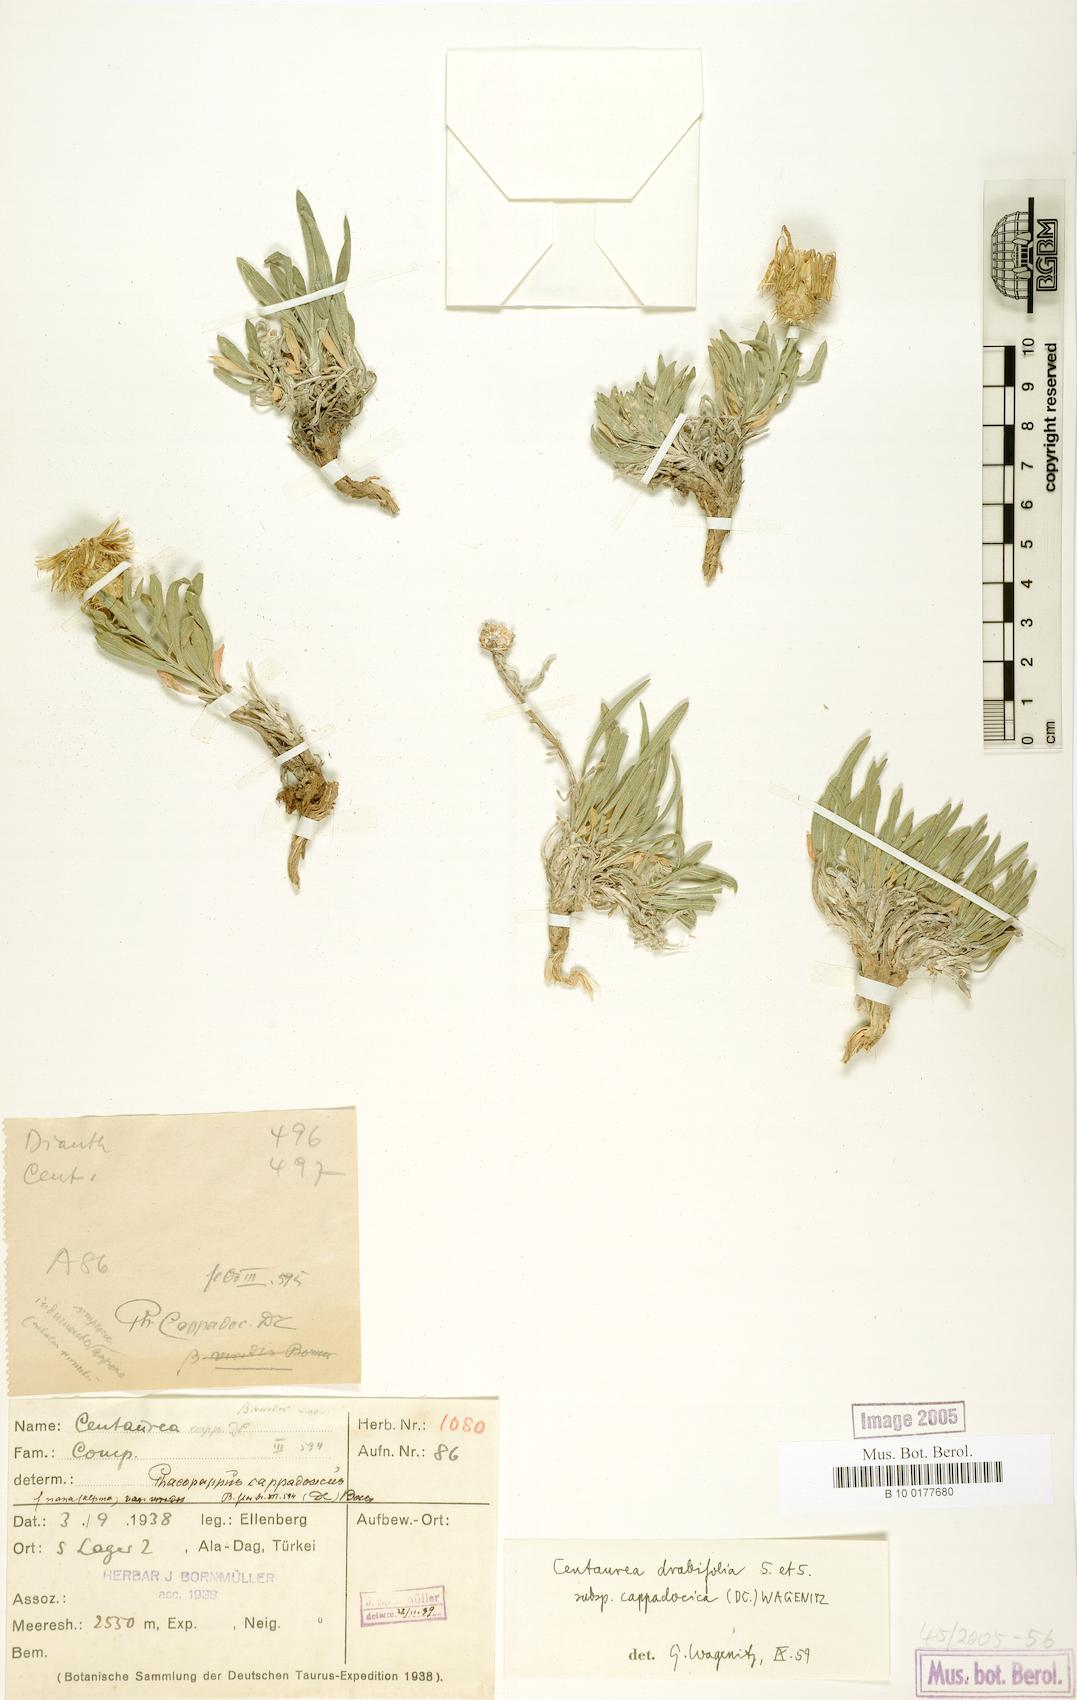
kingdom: Plantae
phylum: Tracheophyta
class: Magnoliopsida
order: Asterales
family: Asteraceae
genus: Centaurea
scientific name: Centaurea drabifolia
